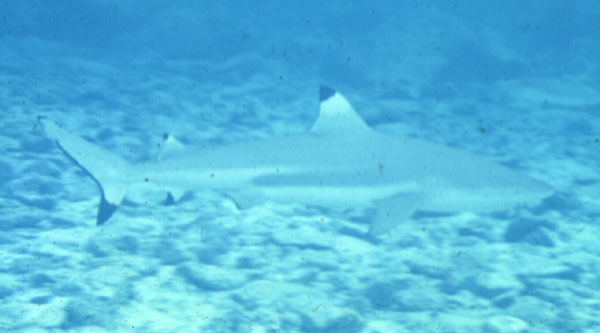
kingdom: Animalia
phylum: Chordata
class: Elasmobranchii
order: Carcharhiniformes
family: Carcharhinidae
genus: Carcharhinus
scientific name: Carcharhinus melanopterus
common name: Blacktip reef shark
